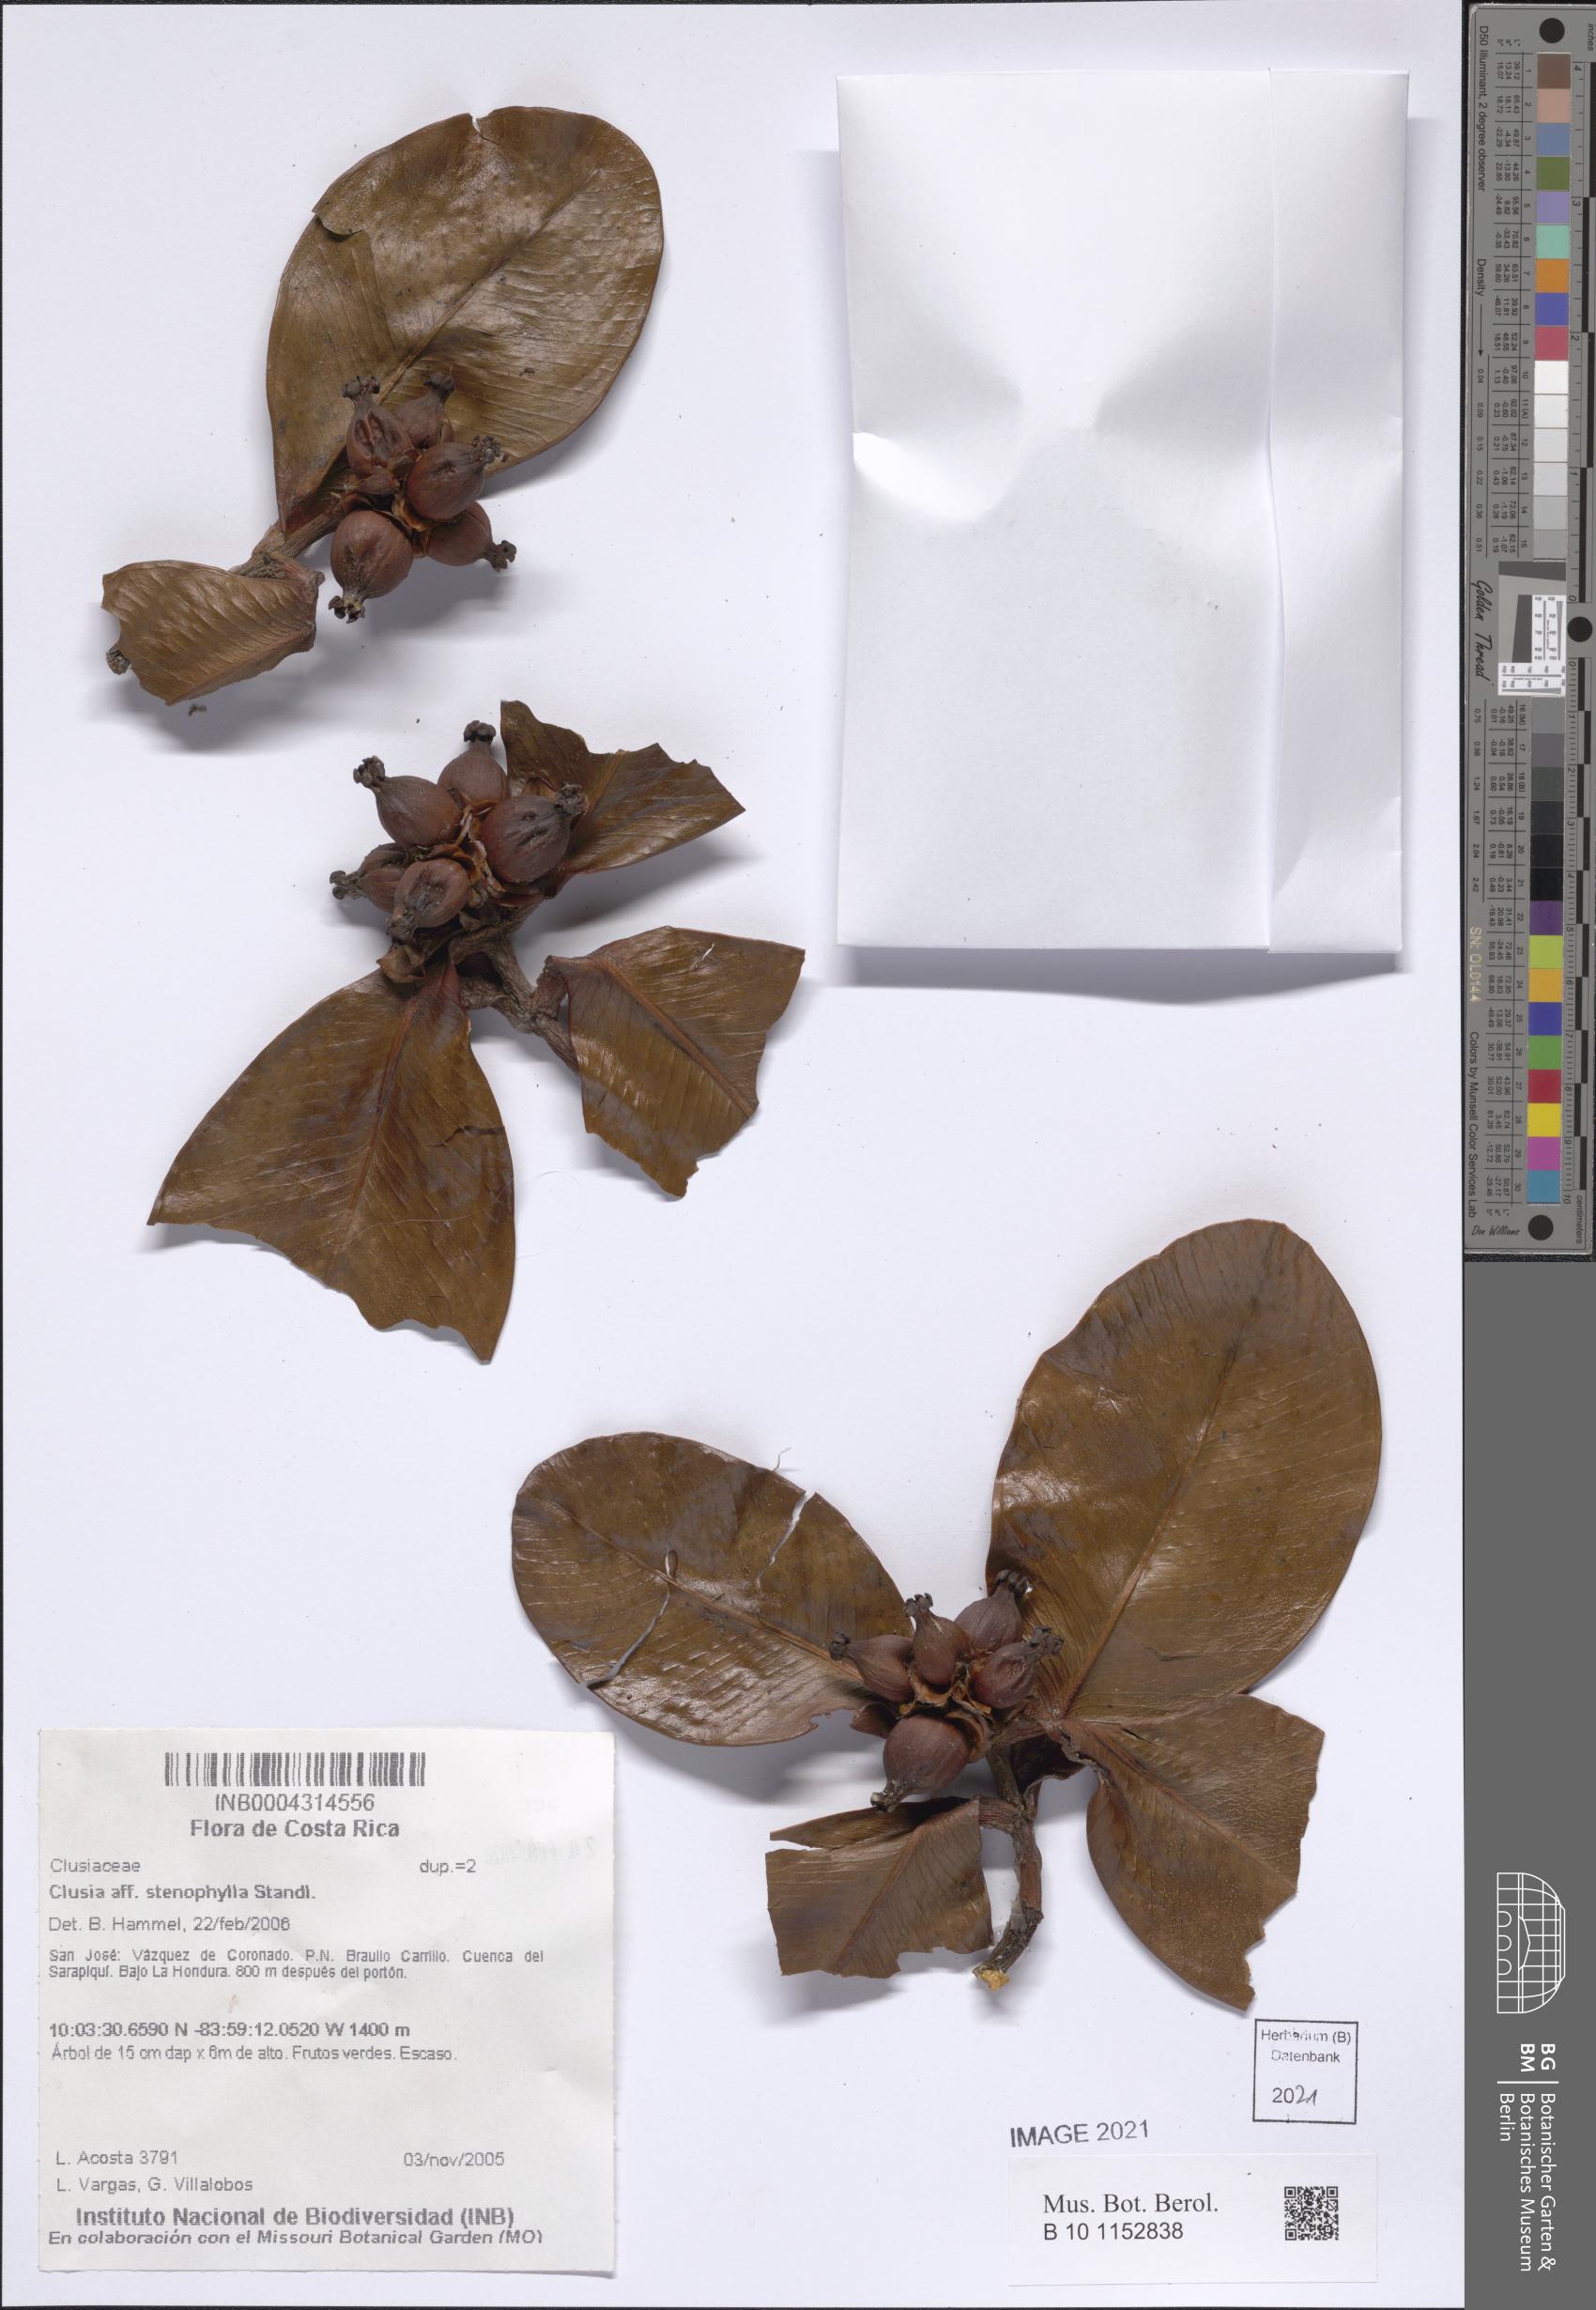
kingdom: Plantae
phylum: Tracheophyta
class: Magnoliopsida
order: Malpighiales
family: Clusiaceae
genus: Clusia
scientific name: Clusia stenophylla
